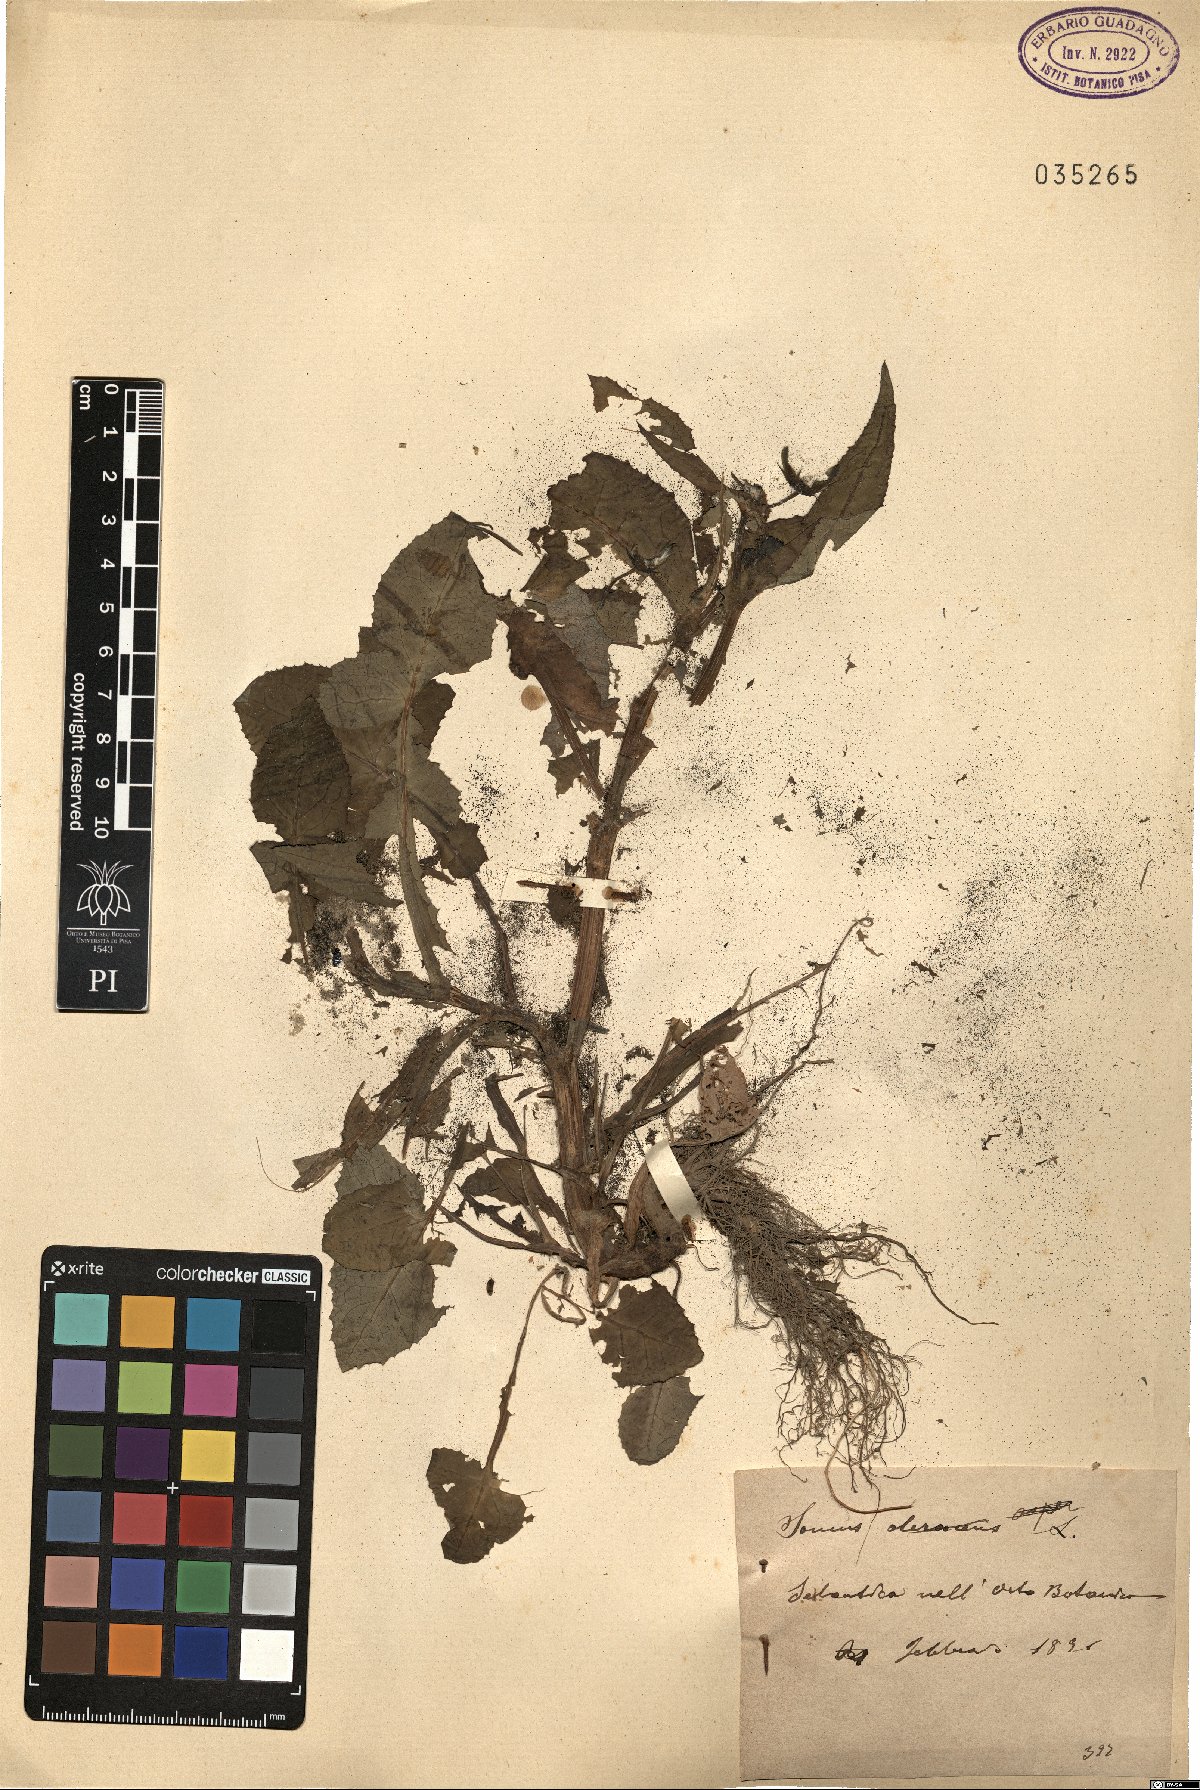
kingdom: Plantae
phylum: Tracheophyta
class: Magnoliopsida
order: Asterales
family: Asteraceae
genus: Sonchus
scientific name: Sonchus oleraceus
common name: Common sowthistle
